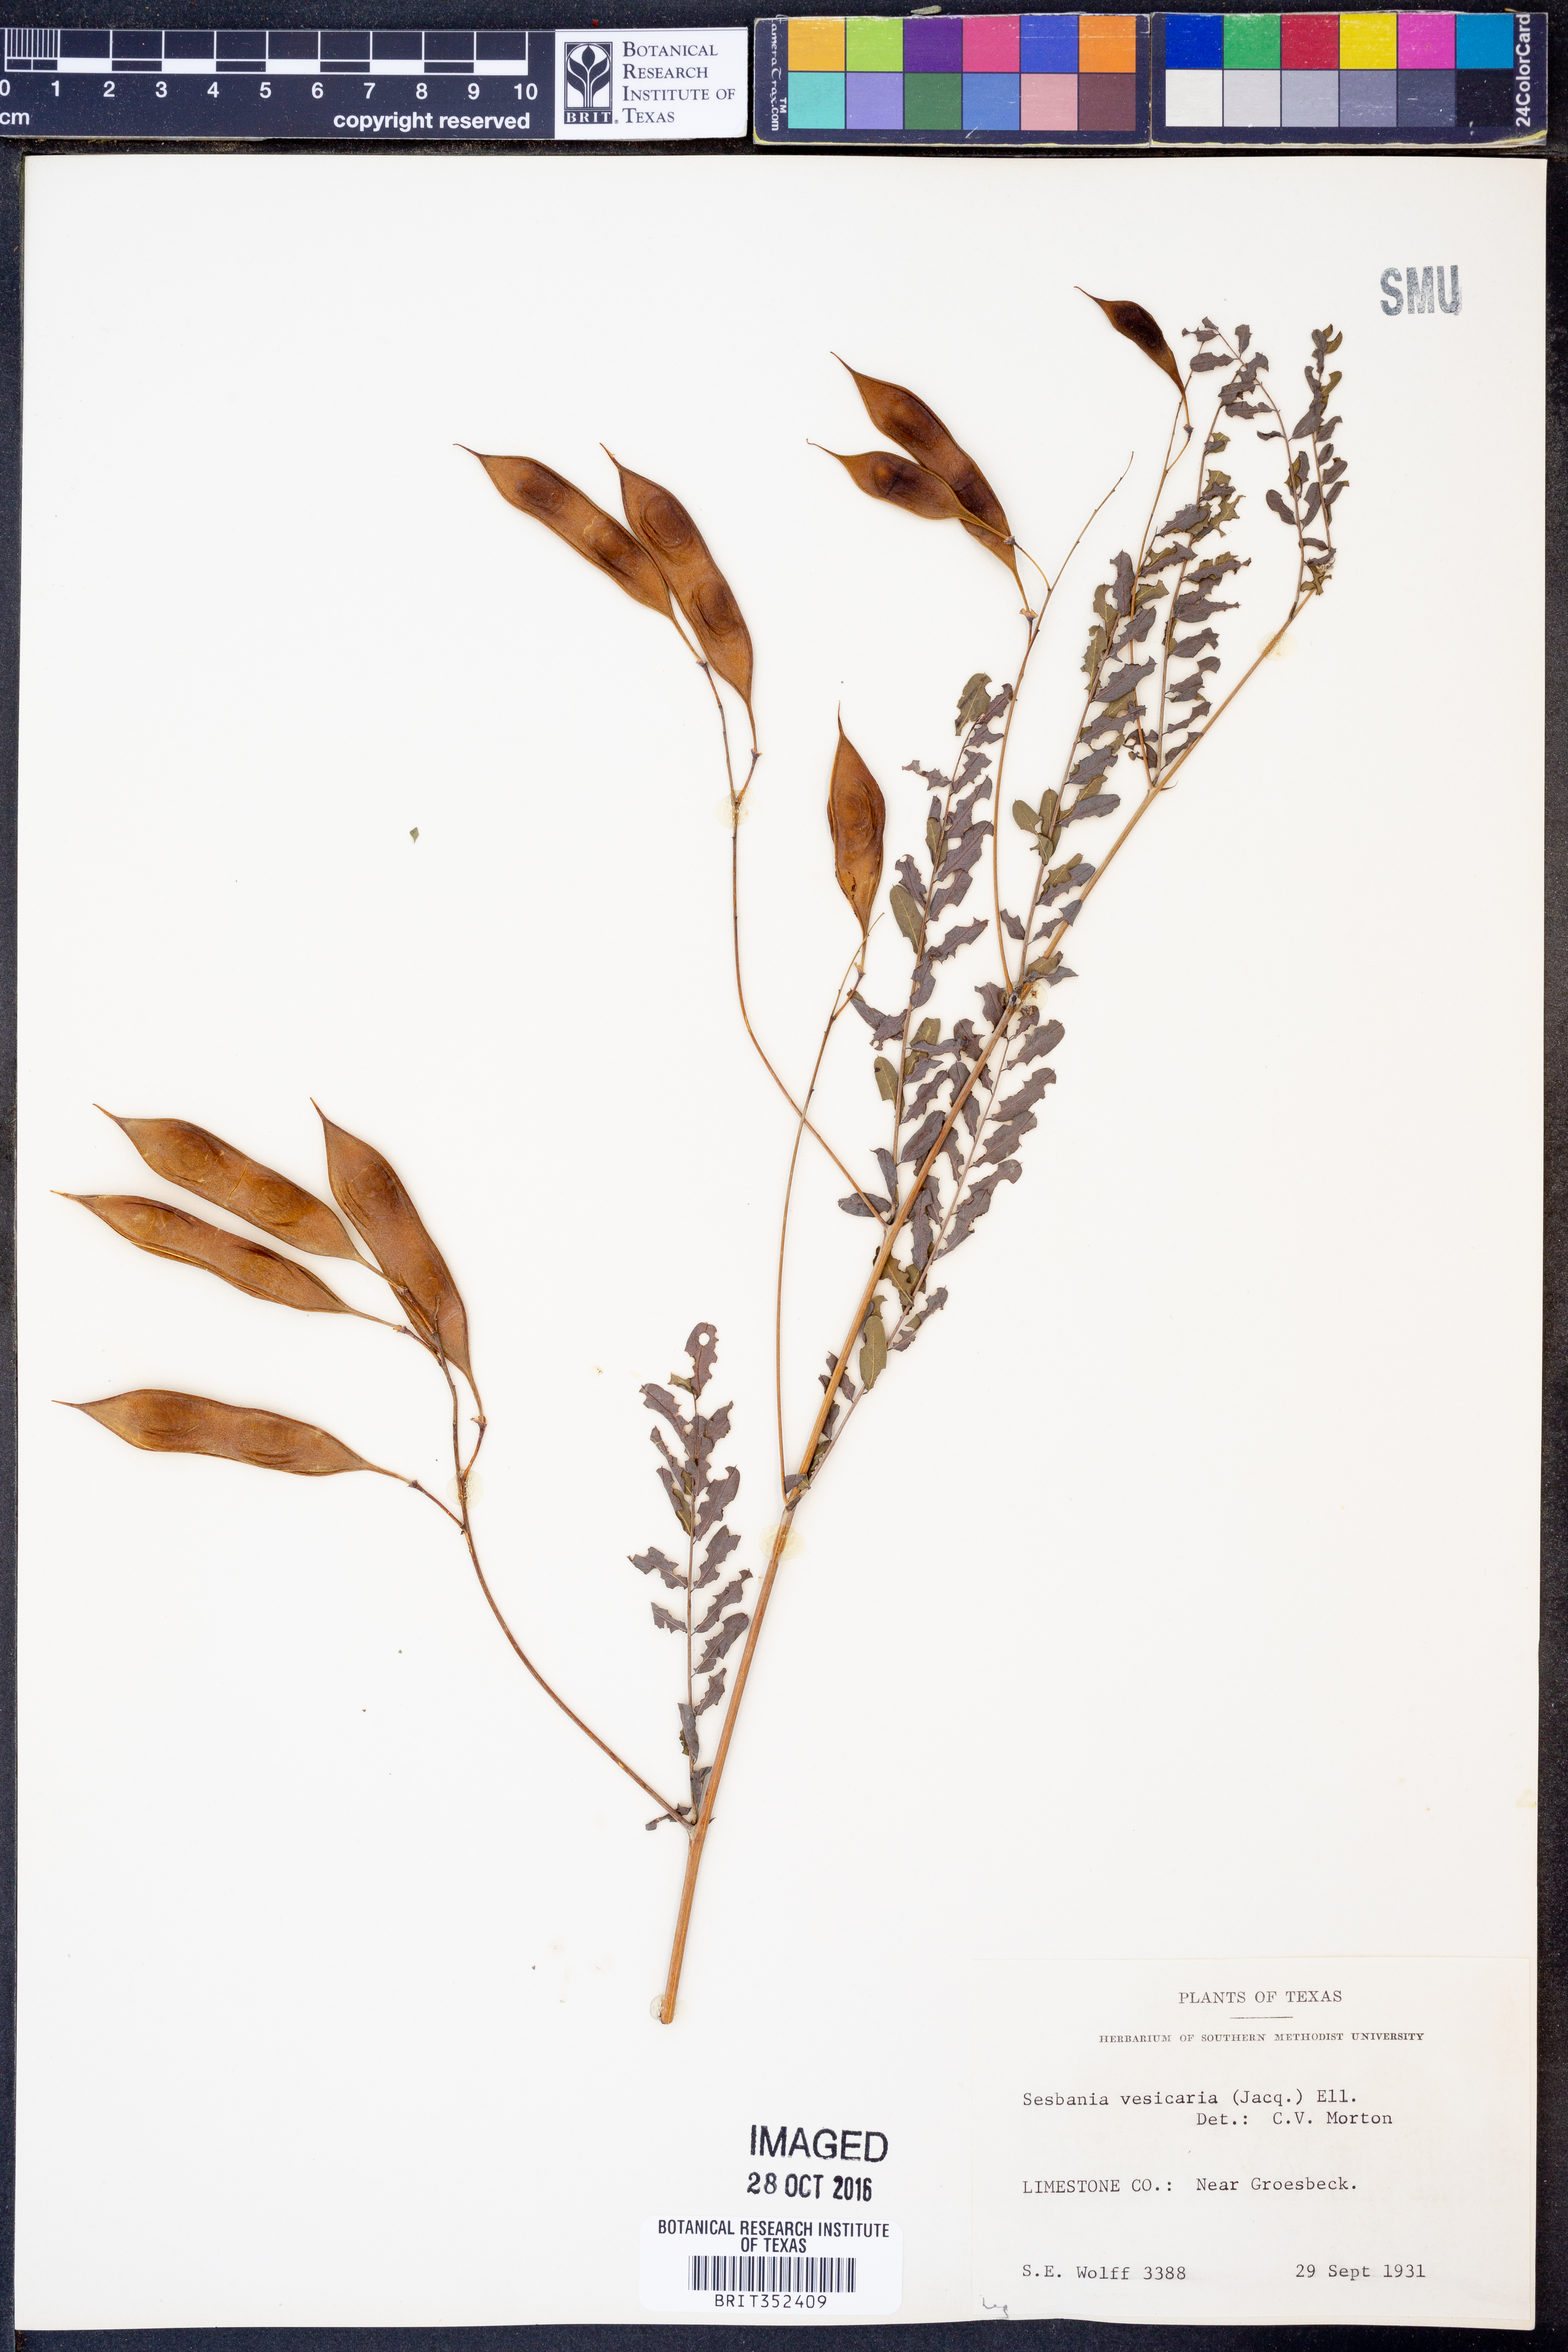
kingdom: Plantae
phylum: Tracheophyta
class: Magnoliopsida
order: Fabales
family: Fabaceae
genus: Sesbania
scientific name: Sesbania vesicaria
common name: Bagpod
